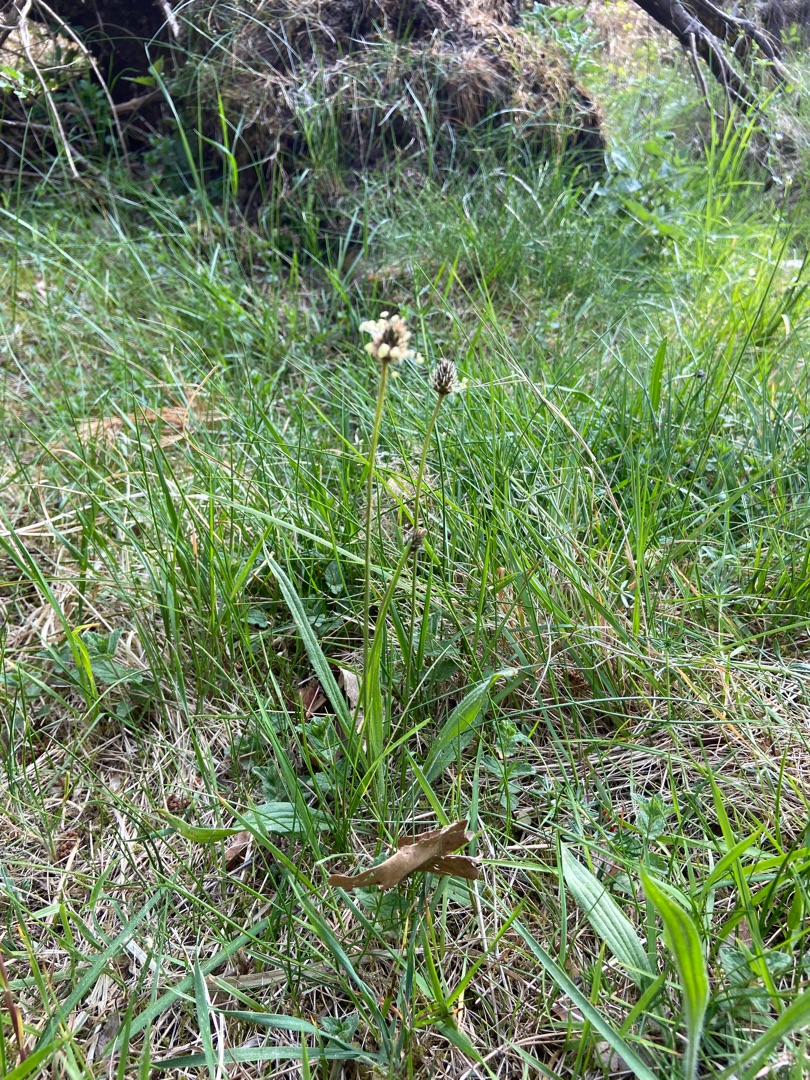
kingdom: Plantae
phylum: Tracheophyta
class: Magnoliopsida
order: Lamiales
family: Plantaginaceae
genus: Plantago
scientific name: Plantago lanceolata
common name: Lancet-vejbred
